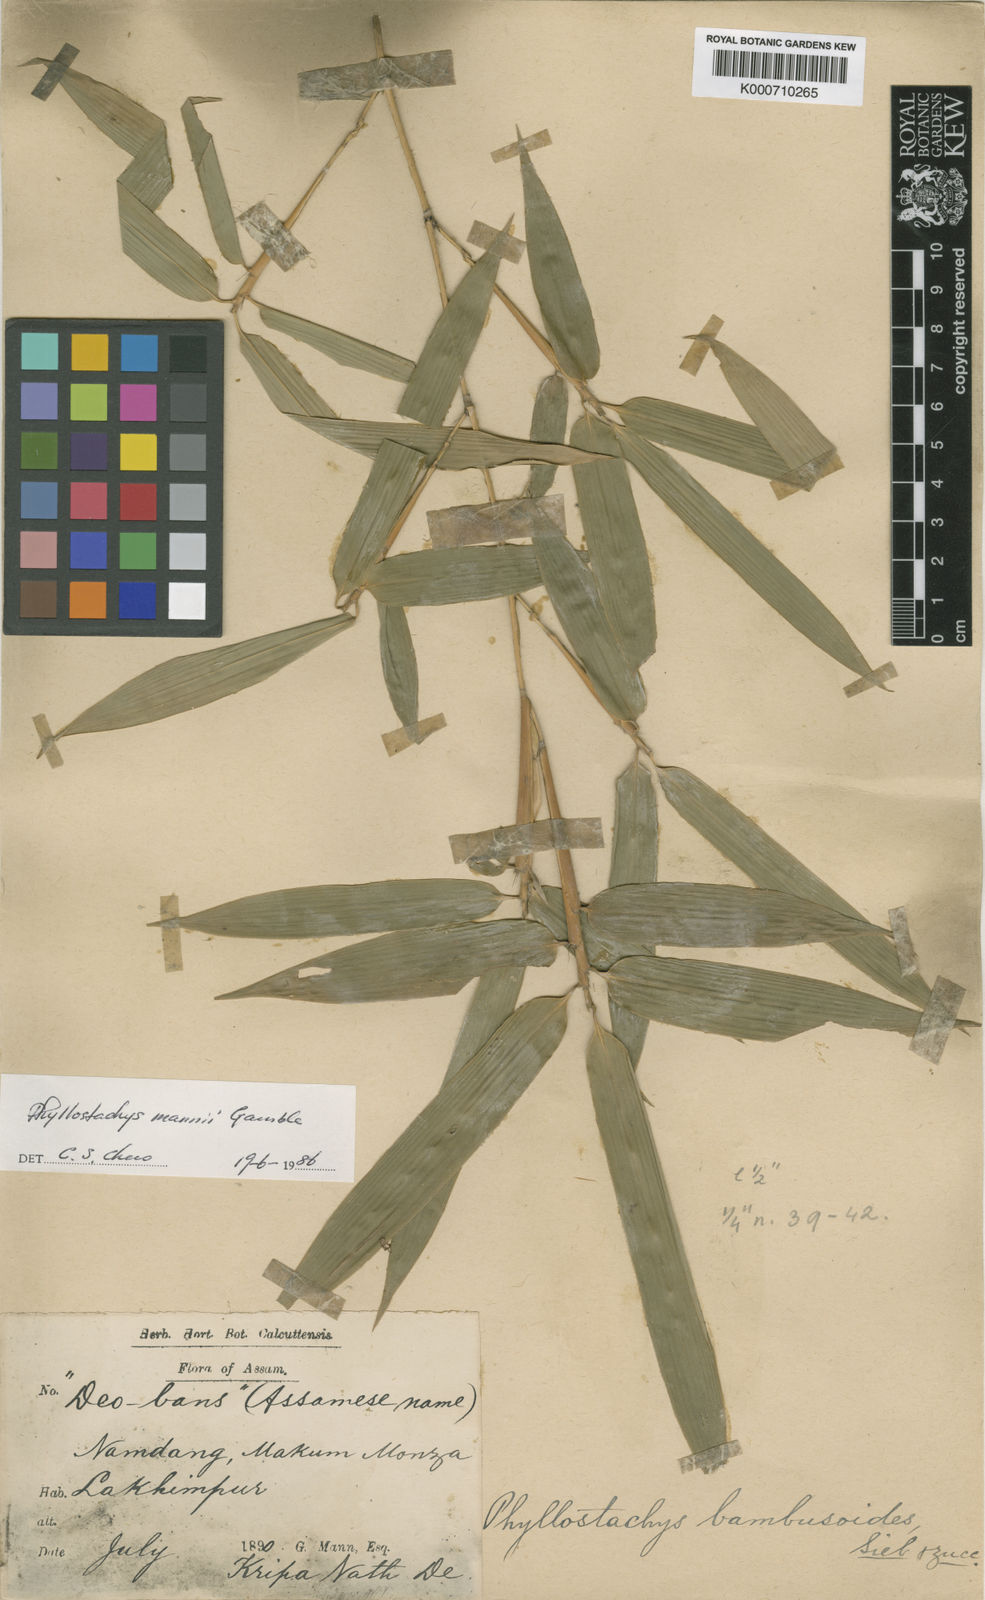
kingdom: Plantae
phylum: Tracheophyta
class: Liliopsida
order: Poales
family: Poaceae
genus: Phyllostachys
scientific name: Phyllostachys mannii
